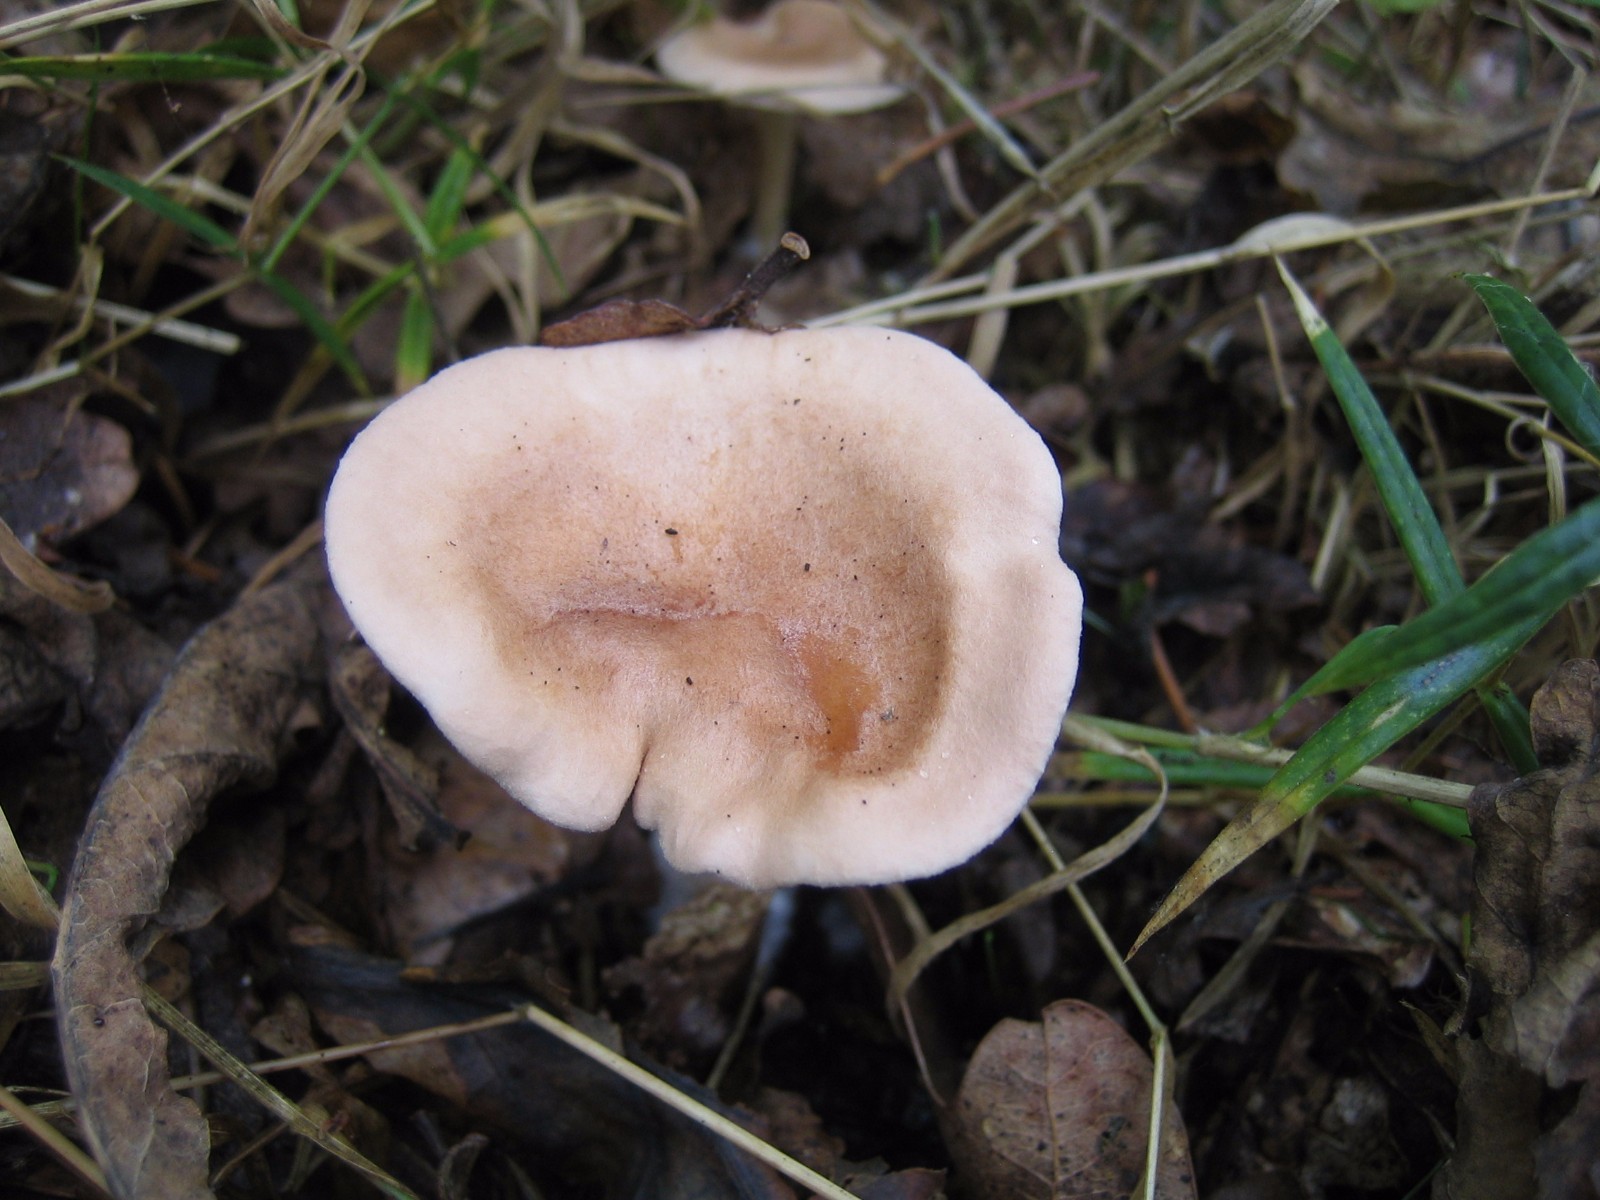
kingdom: Fungi
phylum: Basidiomycota
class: Agaricomycetes
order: Agaricales
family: Tricholomataceae
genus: Infundibulicybe
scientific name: Infundibulicybe gibba
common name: almindelig tragthat
